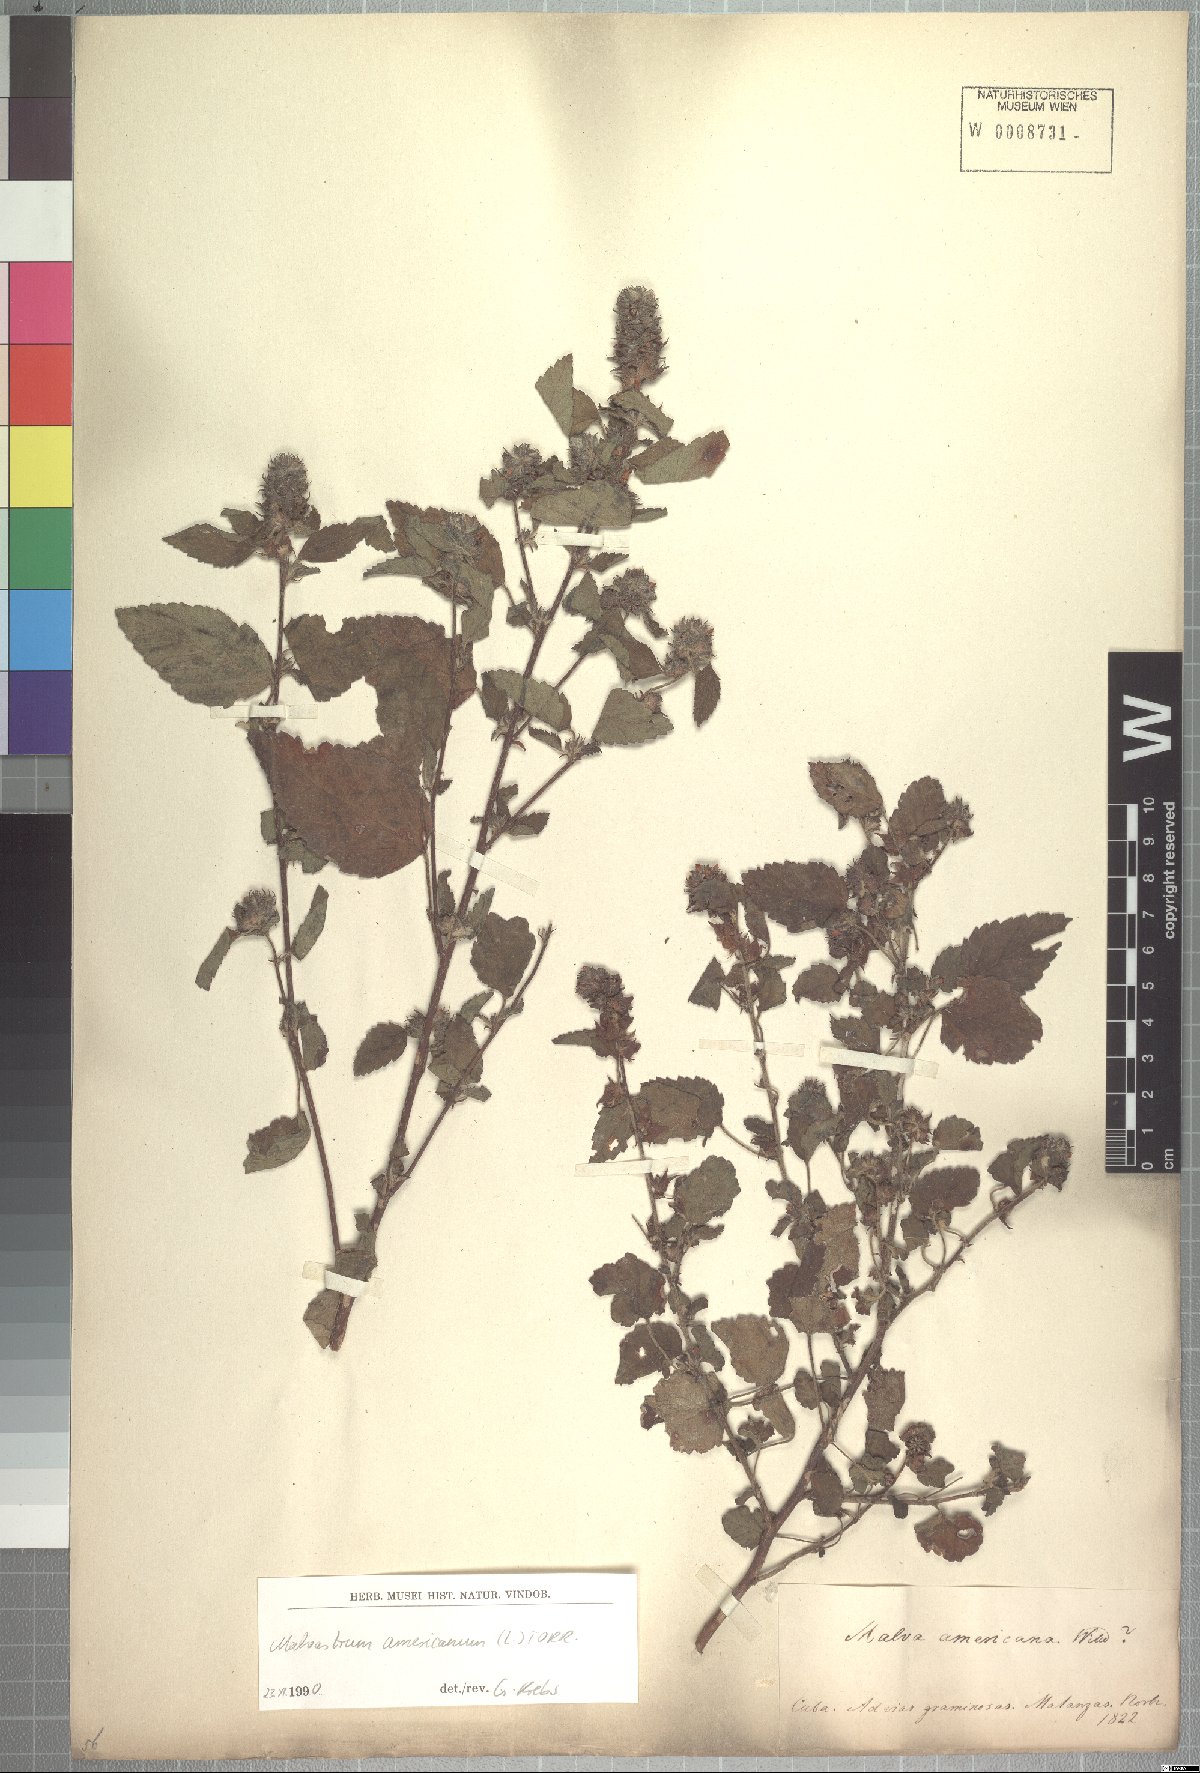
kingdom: Plantae
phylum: Tracheophyta
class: Magnoliopsida
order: Malvales
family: Malvaceae
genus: Malvastrum
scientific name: Malvastrum americanum
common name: Spiked malvastrum
